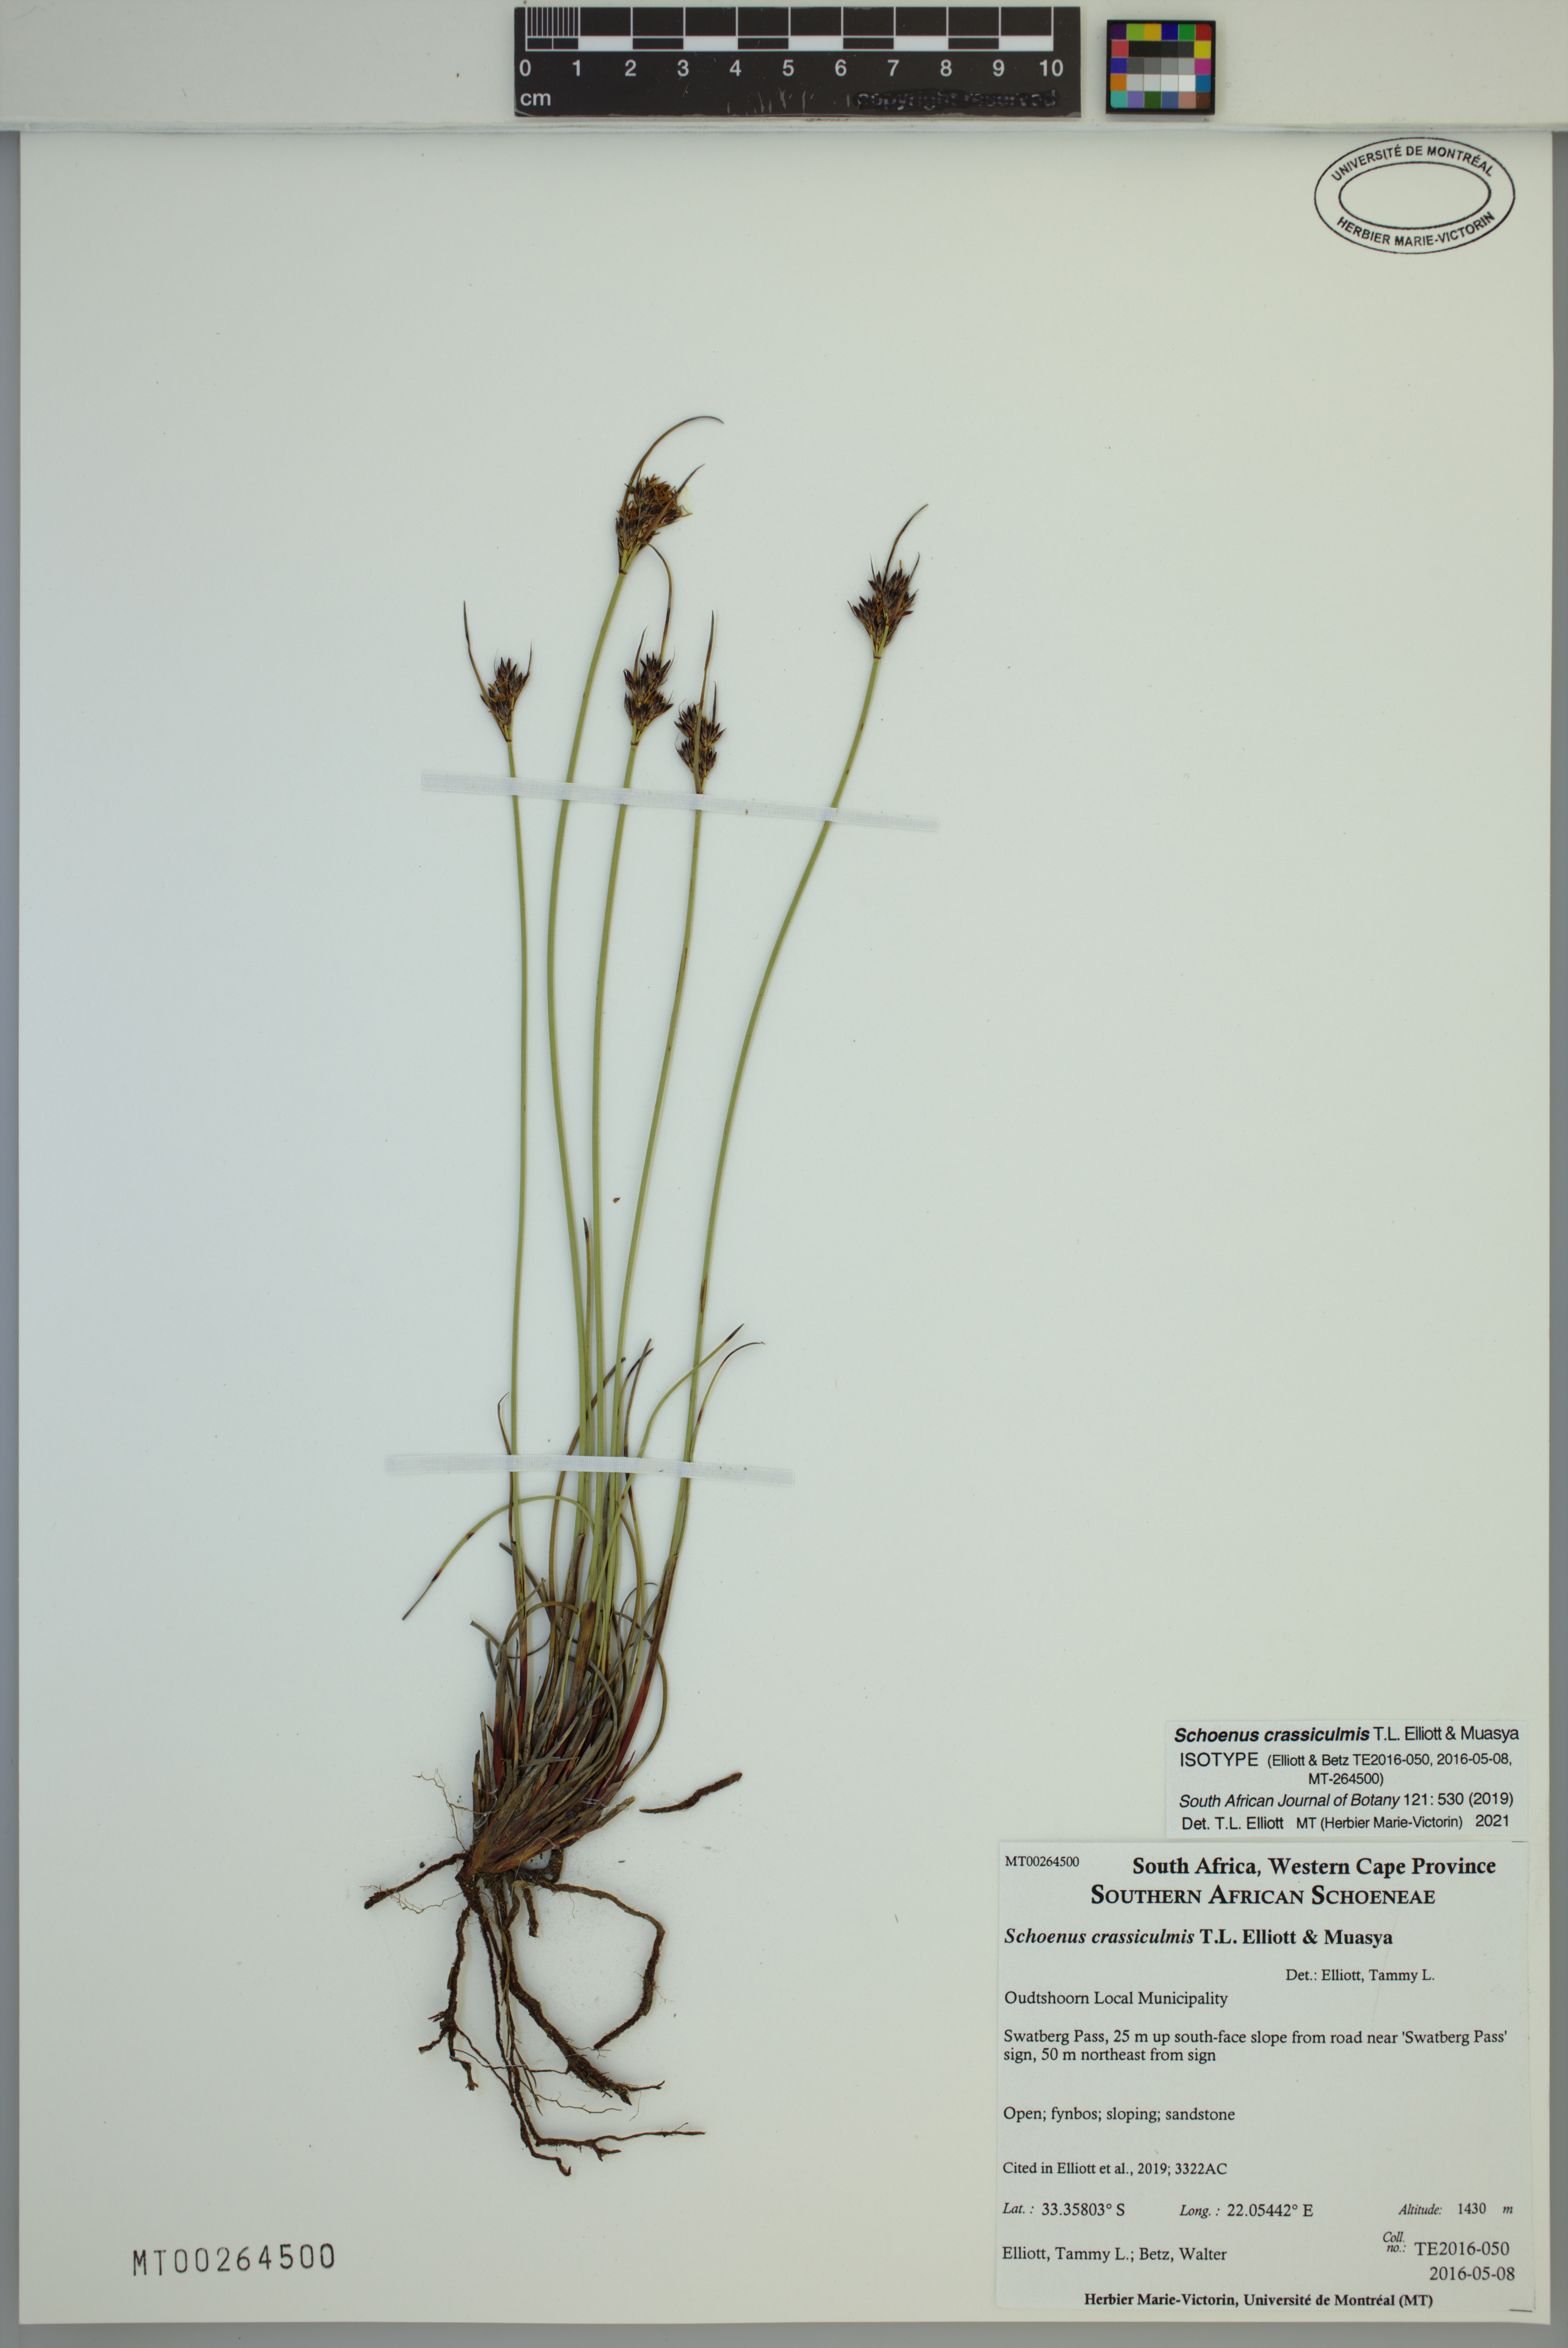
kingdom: Plantae
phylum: Tracheophyta
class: Liliopsida
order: Poales
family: Cyperaceae
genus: Schoenus
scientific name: Schoenus crassiculmis
